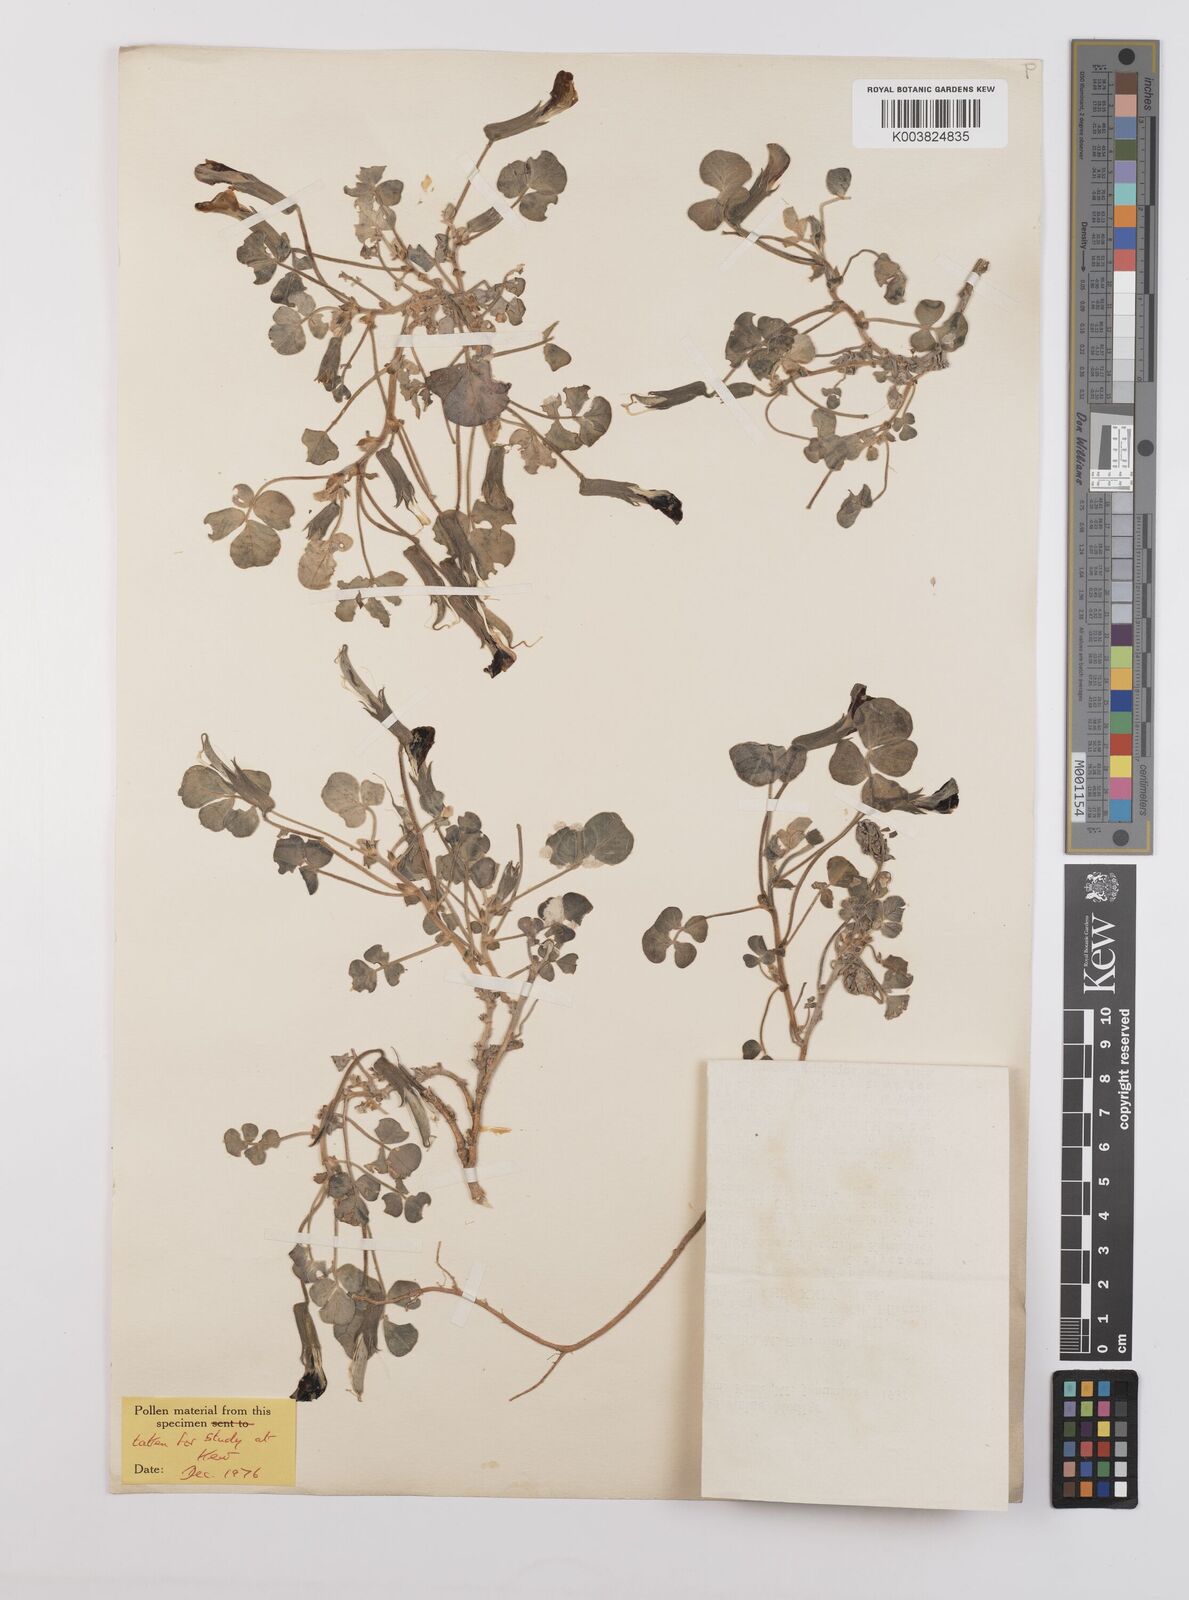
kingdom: Plantae
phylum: Tracheophyta
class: Magnoliopsida
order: Fabales
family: Fabaceae
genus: Chesneya
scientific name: Chesneya ternata
